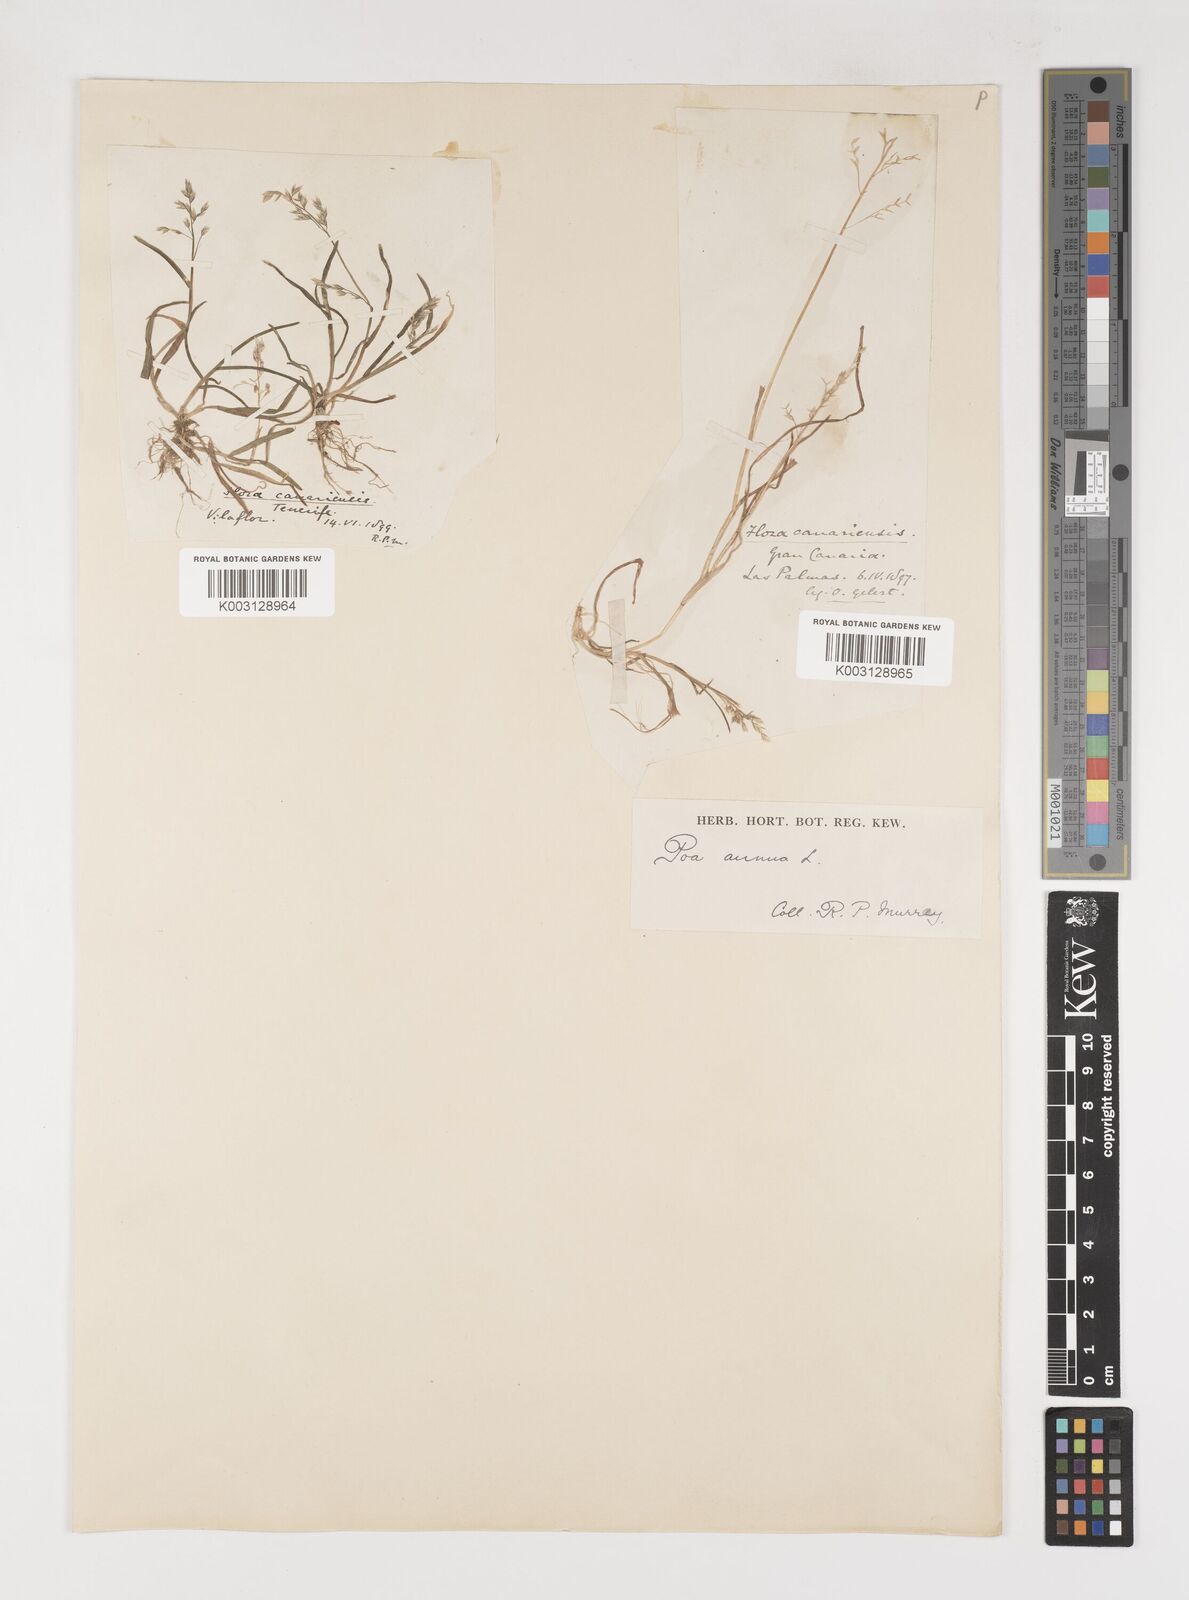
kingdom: Plantae
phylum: Tracheophyta
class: Liliopsida
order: Poales
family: Poaceae
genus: Poa
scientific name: Poa annua
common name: Annual bluegrass
